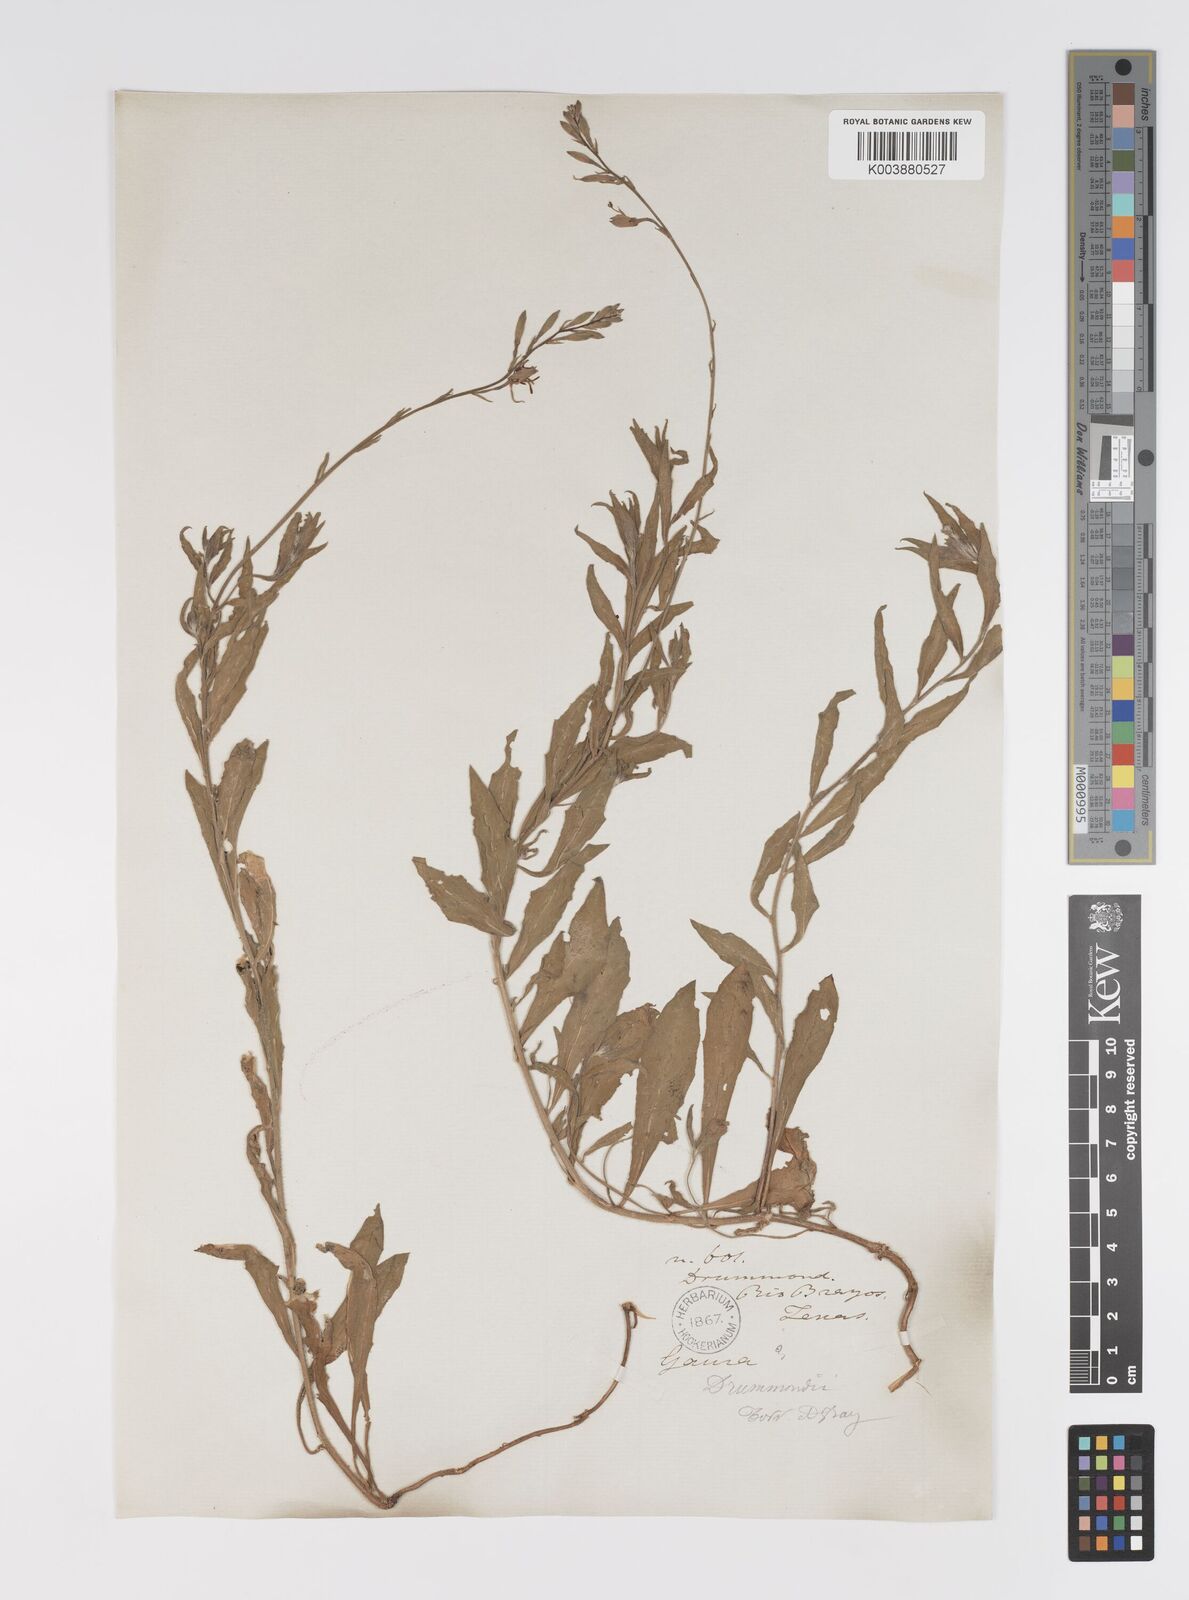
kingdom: Plantae
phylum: Tracheophyta
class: Magnoliopsida
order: Myrtales
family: Onagraceae
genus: Oenothera
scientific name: Oenothera hispida
